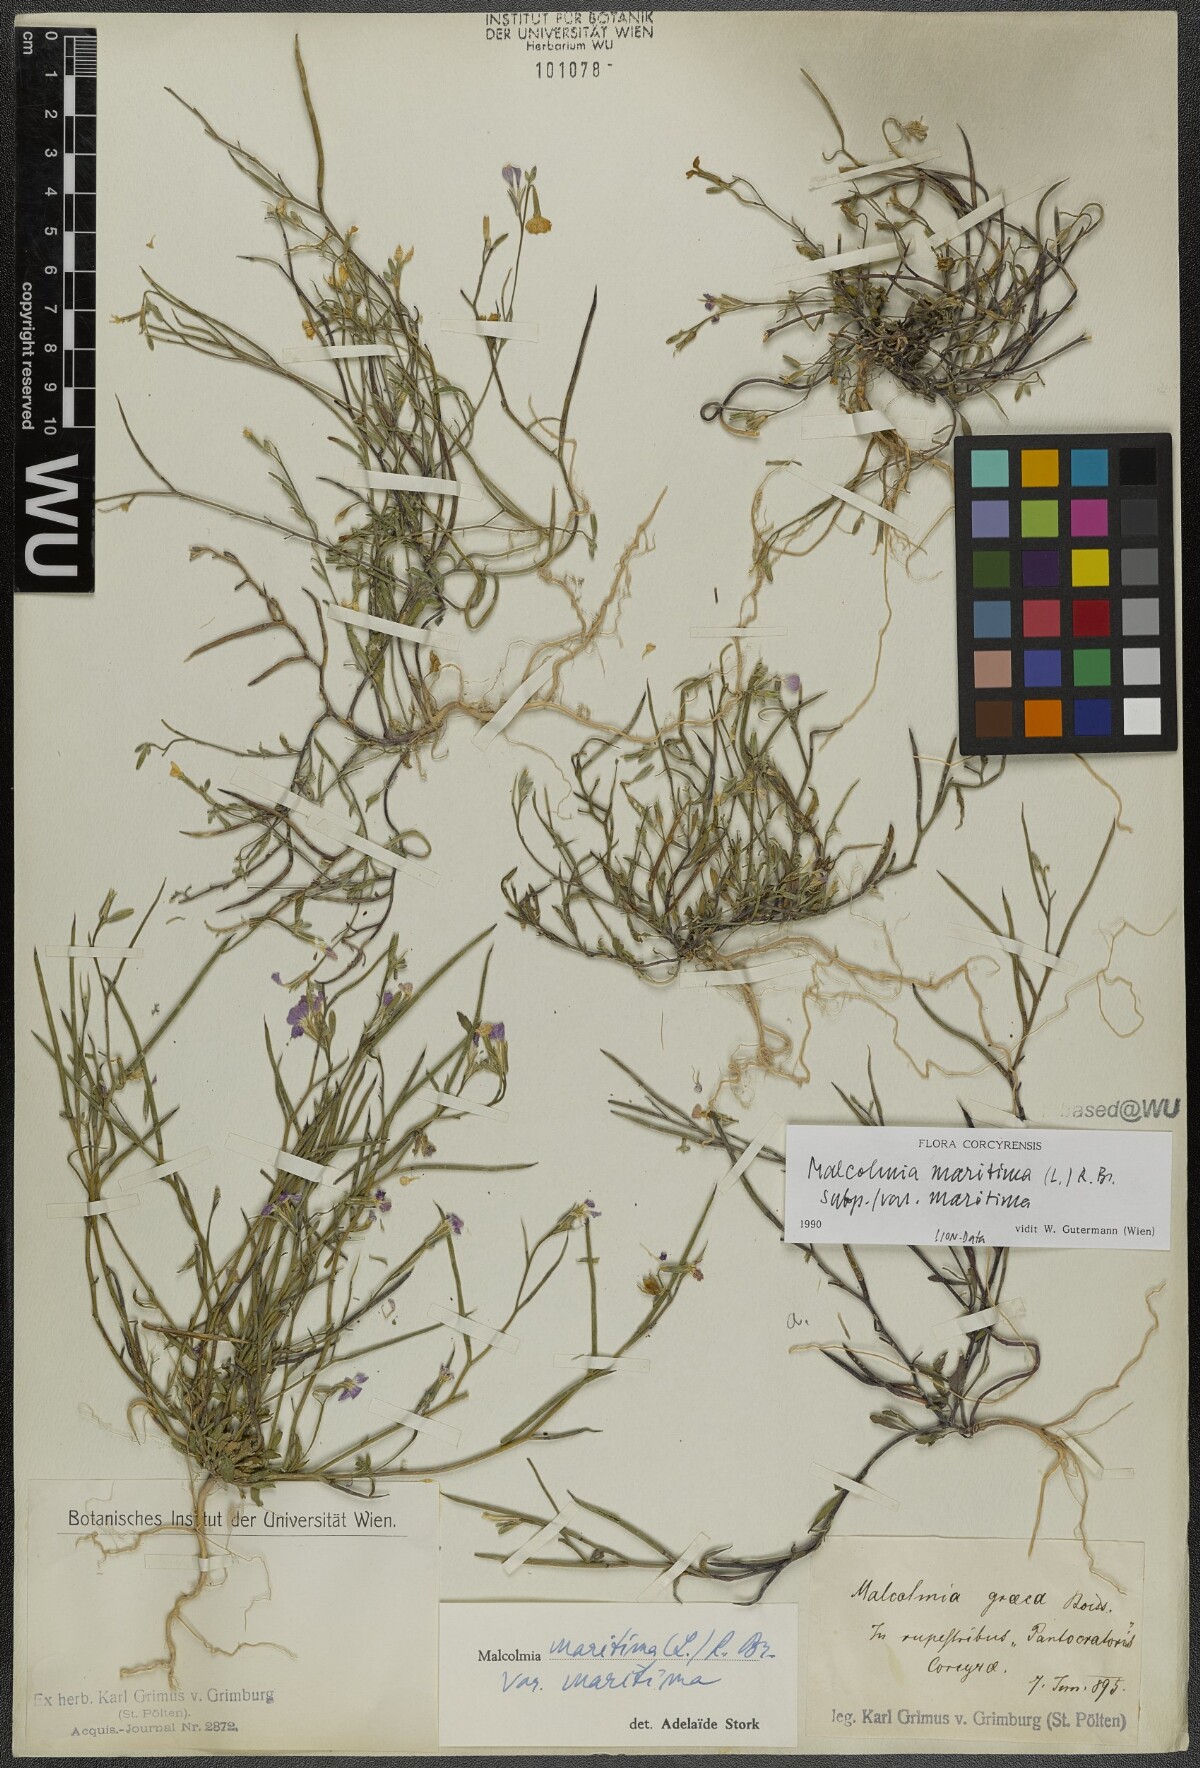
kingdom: Plantae
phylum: Tracheophyta
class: Magnoliopsida
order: Brassicales
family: Brassicaceae
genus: Malcolmia
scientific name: Malcolmia maritima
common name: Virginia stock
